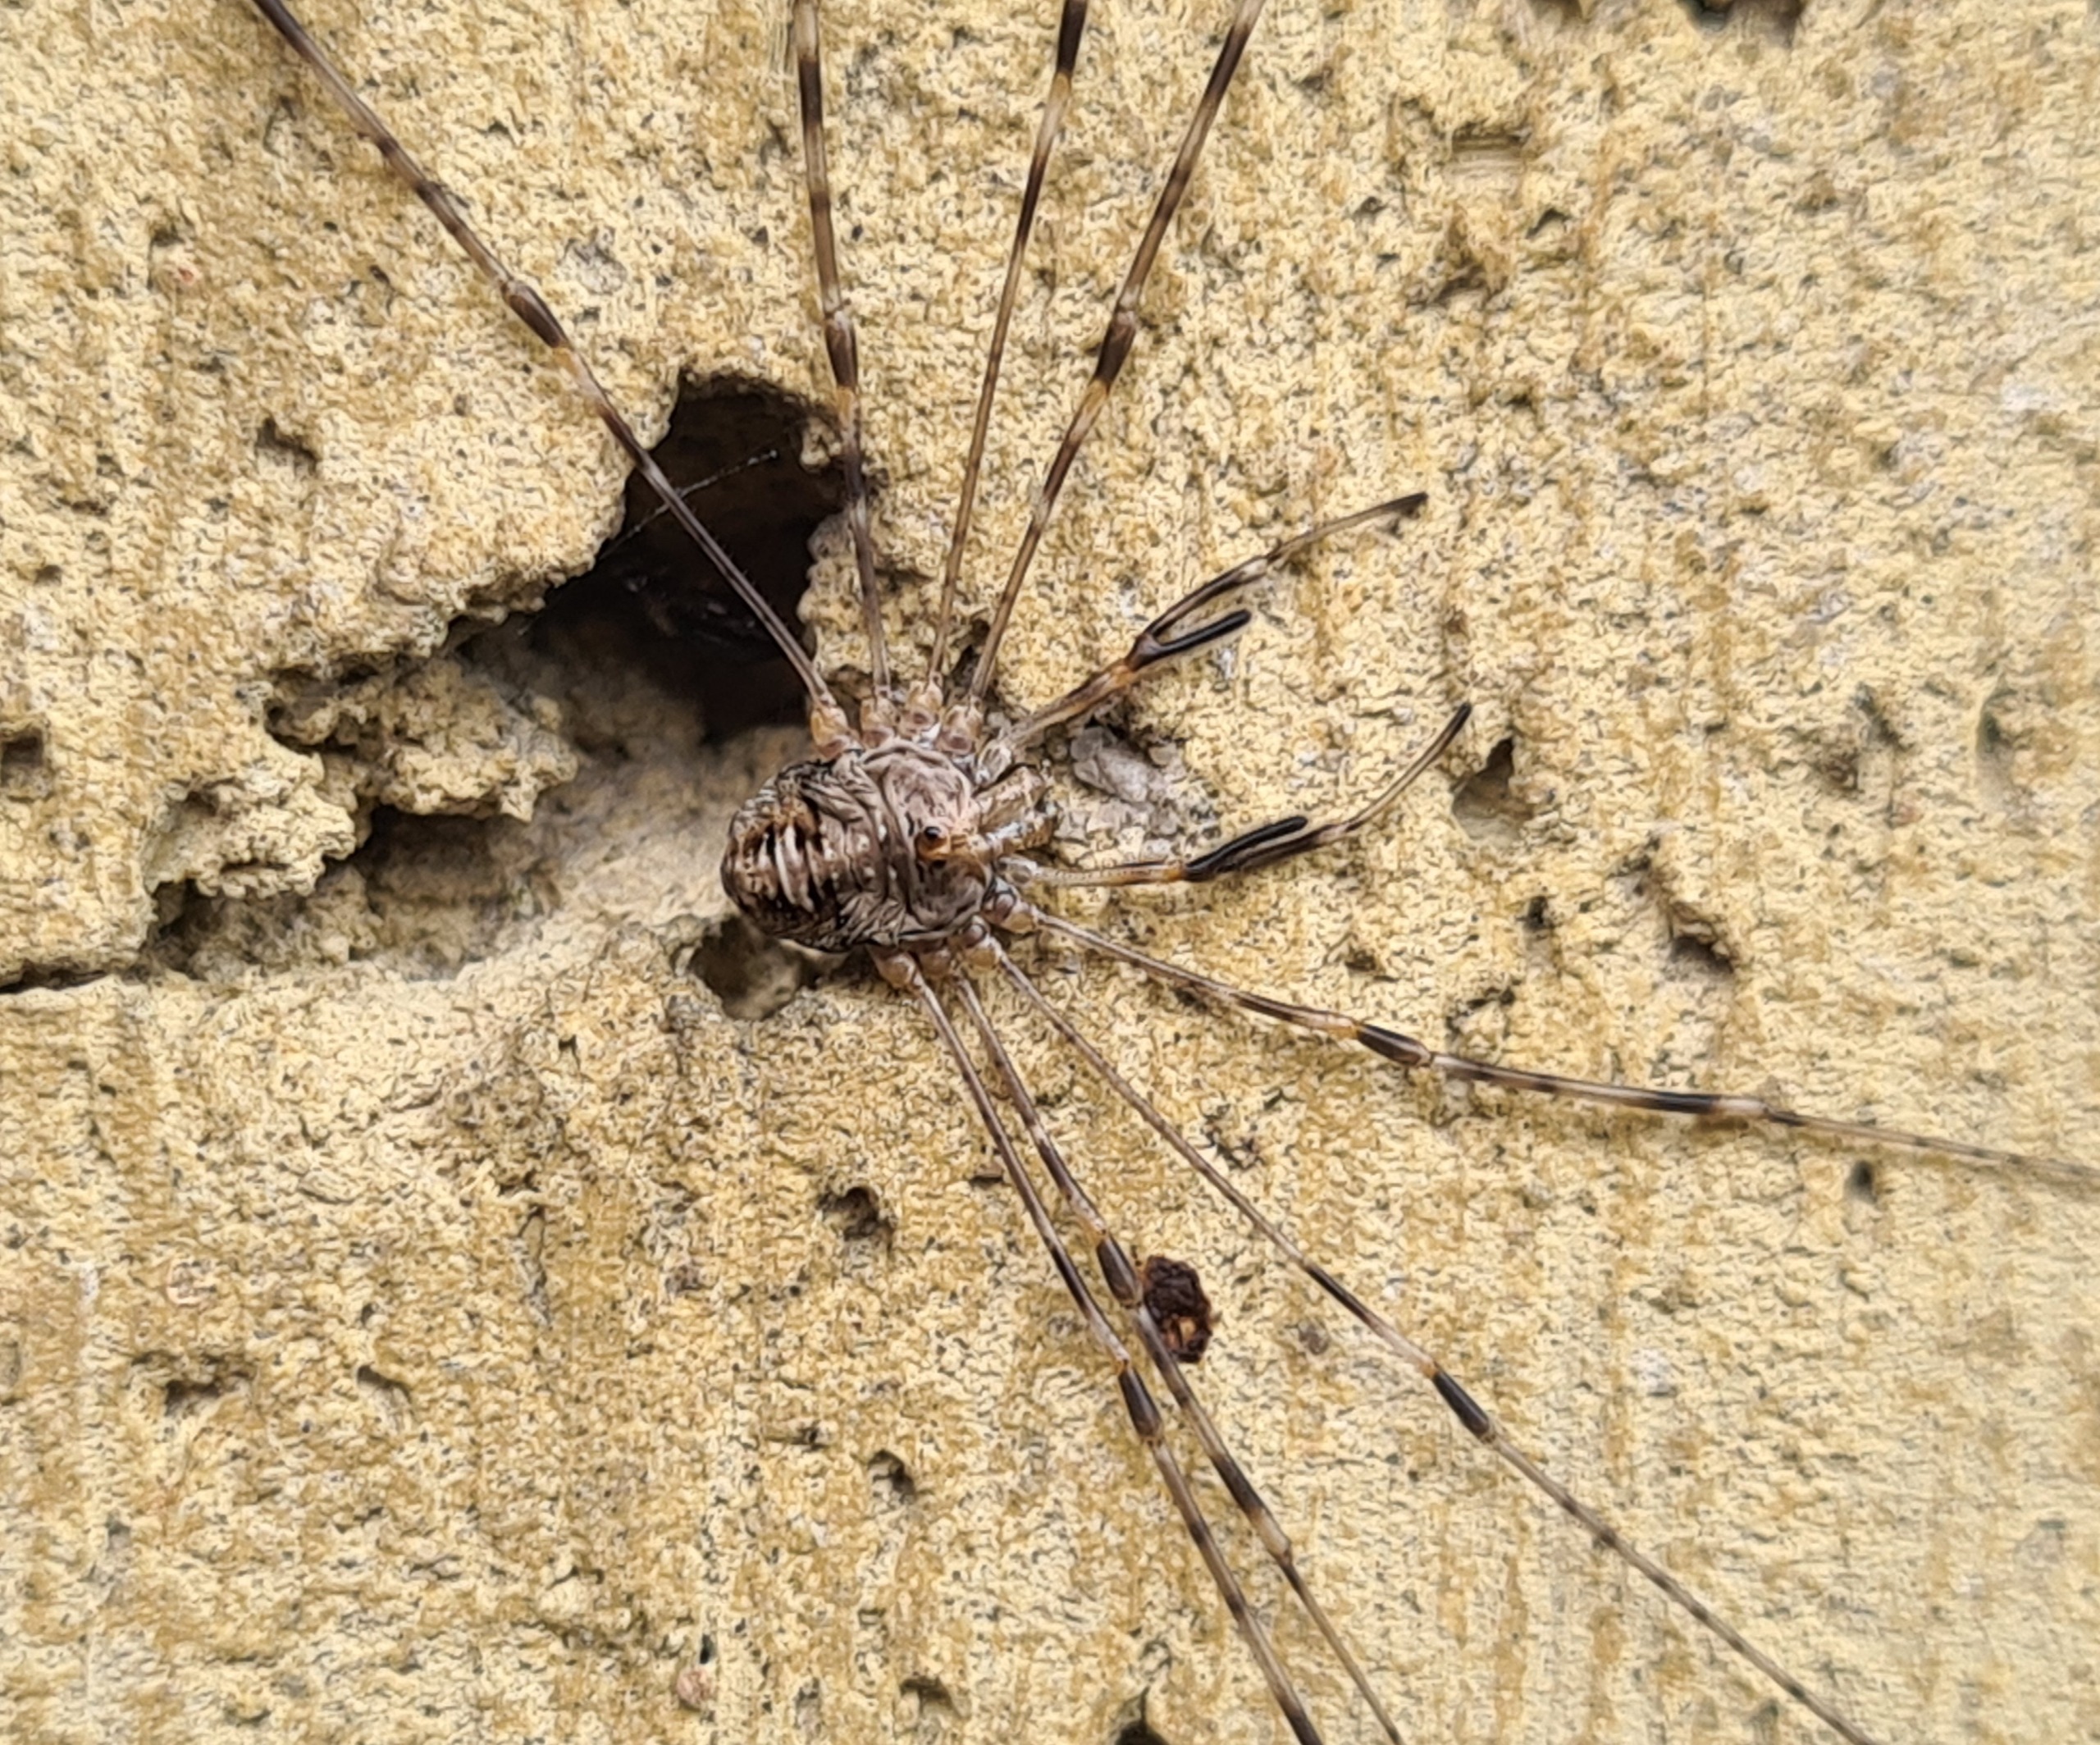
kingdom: Animalia
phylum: Arthropoda
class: Arachnida
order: Opiliones
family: Phalangiidae
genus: Dicranopalpus
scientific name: Dicranopalpus ramosus
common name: Gaffelmejer
